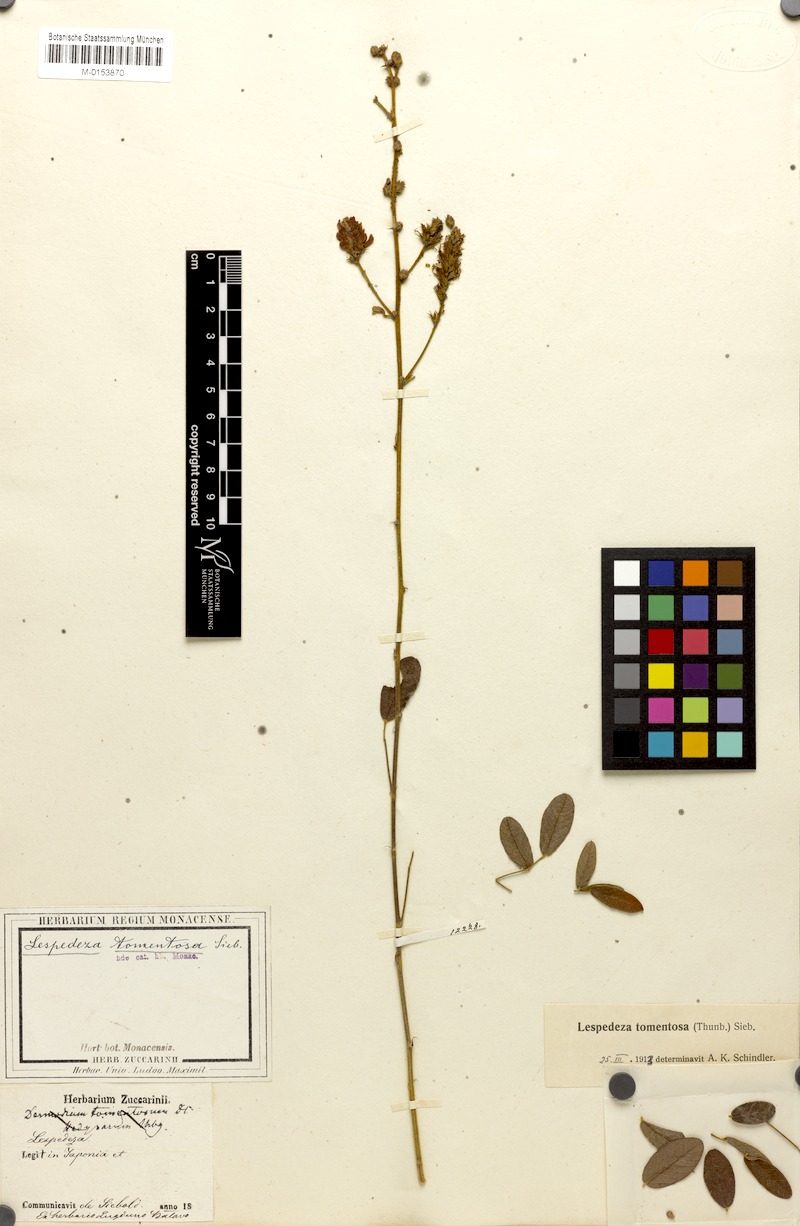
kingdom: Plantae
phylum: Tracheophyta
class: Magnoliopsida
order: Fabales
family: Fabaceae
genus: Lespedeza
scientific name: Lespedeza tomentosa
